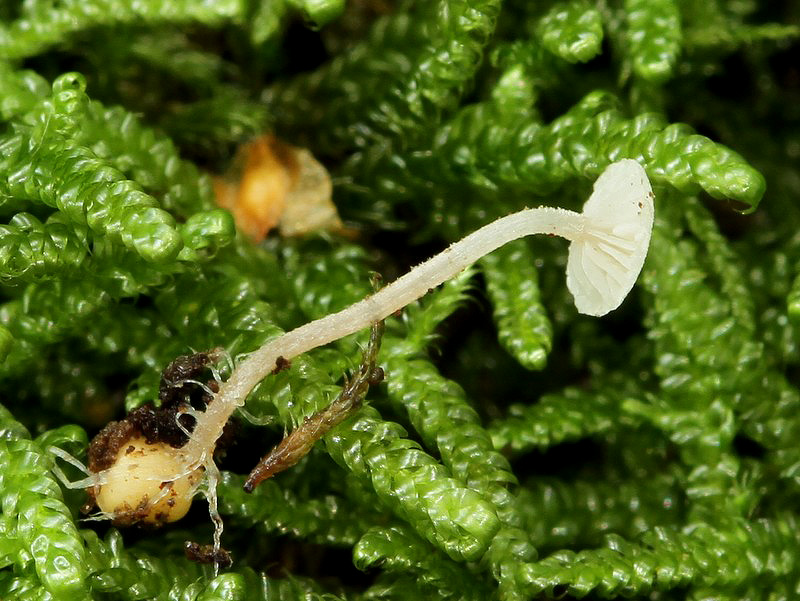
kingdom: Fungi
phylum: Basidiomycota
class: Agaricomycetes
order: Agaricales
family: Tricholomataceae
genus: Collybia
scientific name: Collybia cookei
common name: gulknoldet lighat
